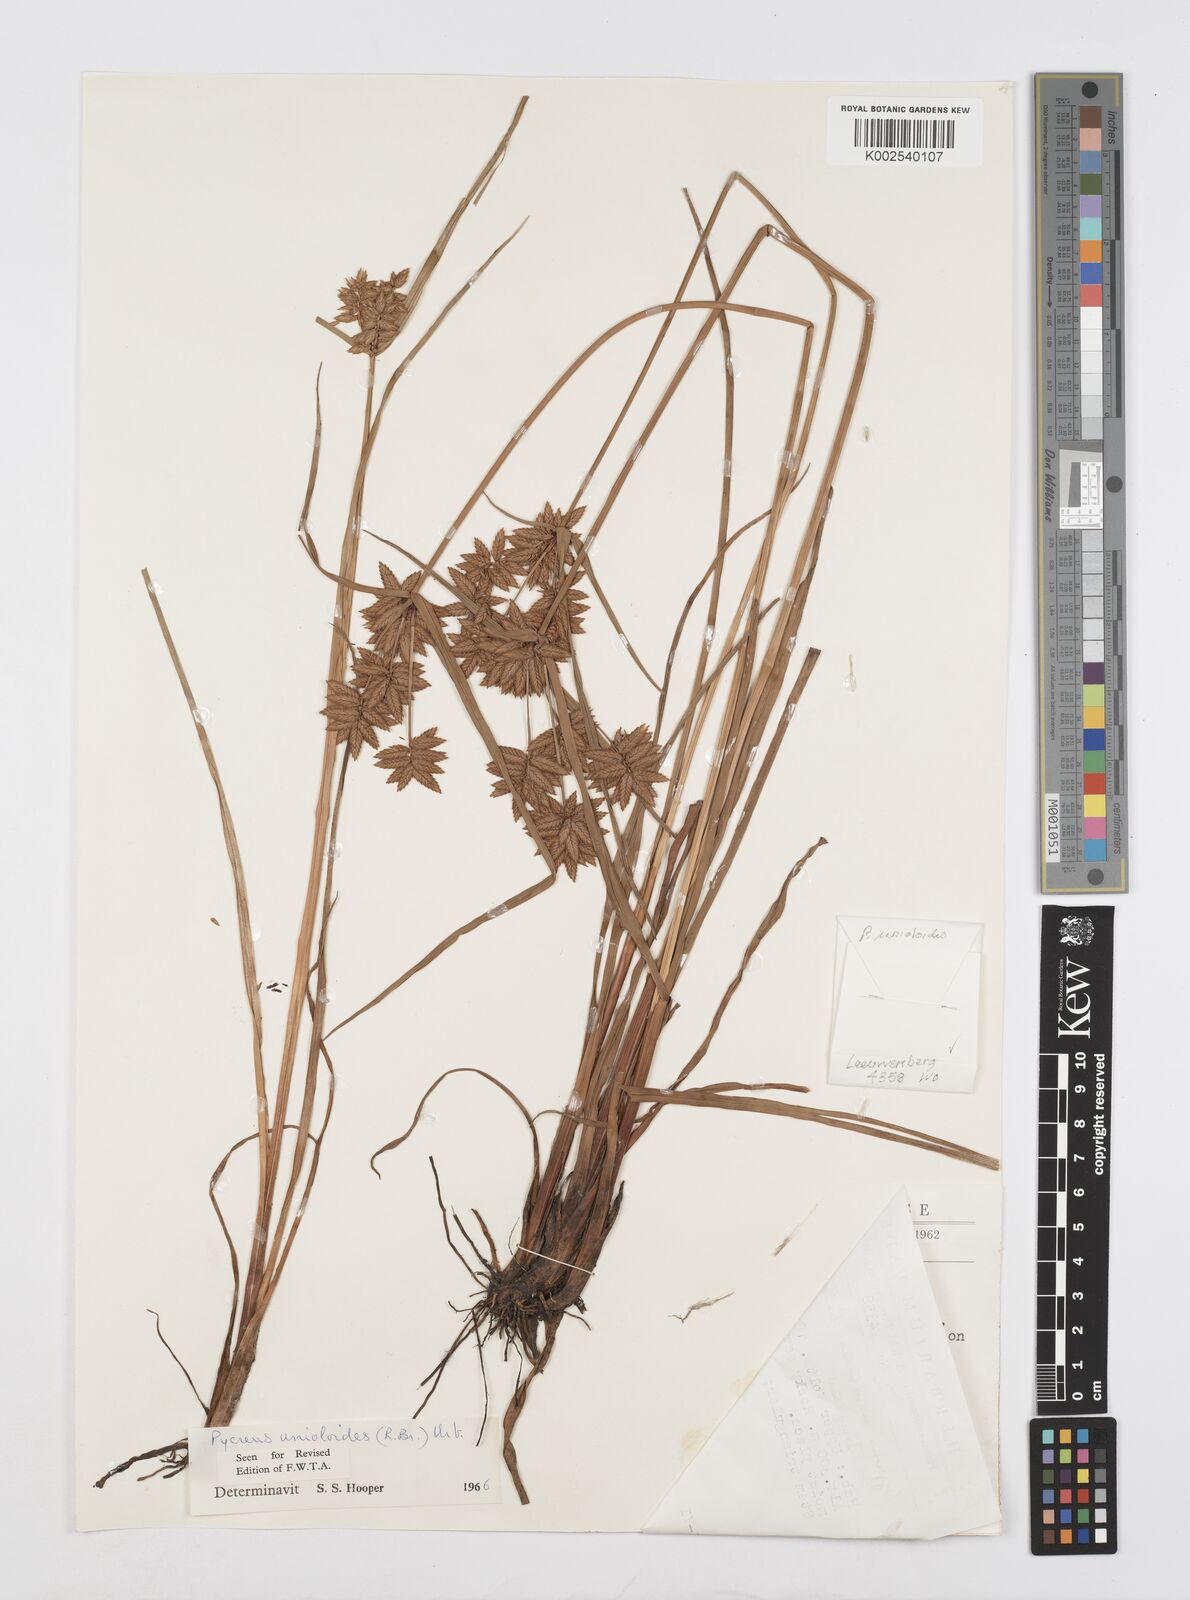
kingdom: Plantae
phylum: Tracheophyta
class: Liliopsida
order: Poales
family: Cyperaceae
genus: Cyperus
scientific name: Cyperus unioloides
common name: Uniola flatsedge
